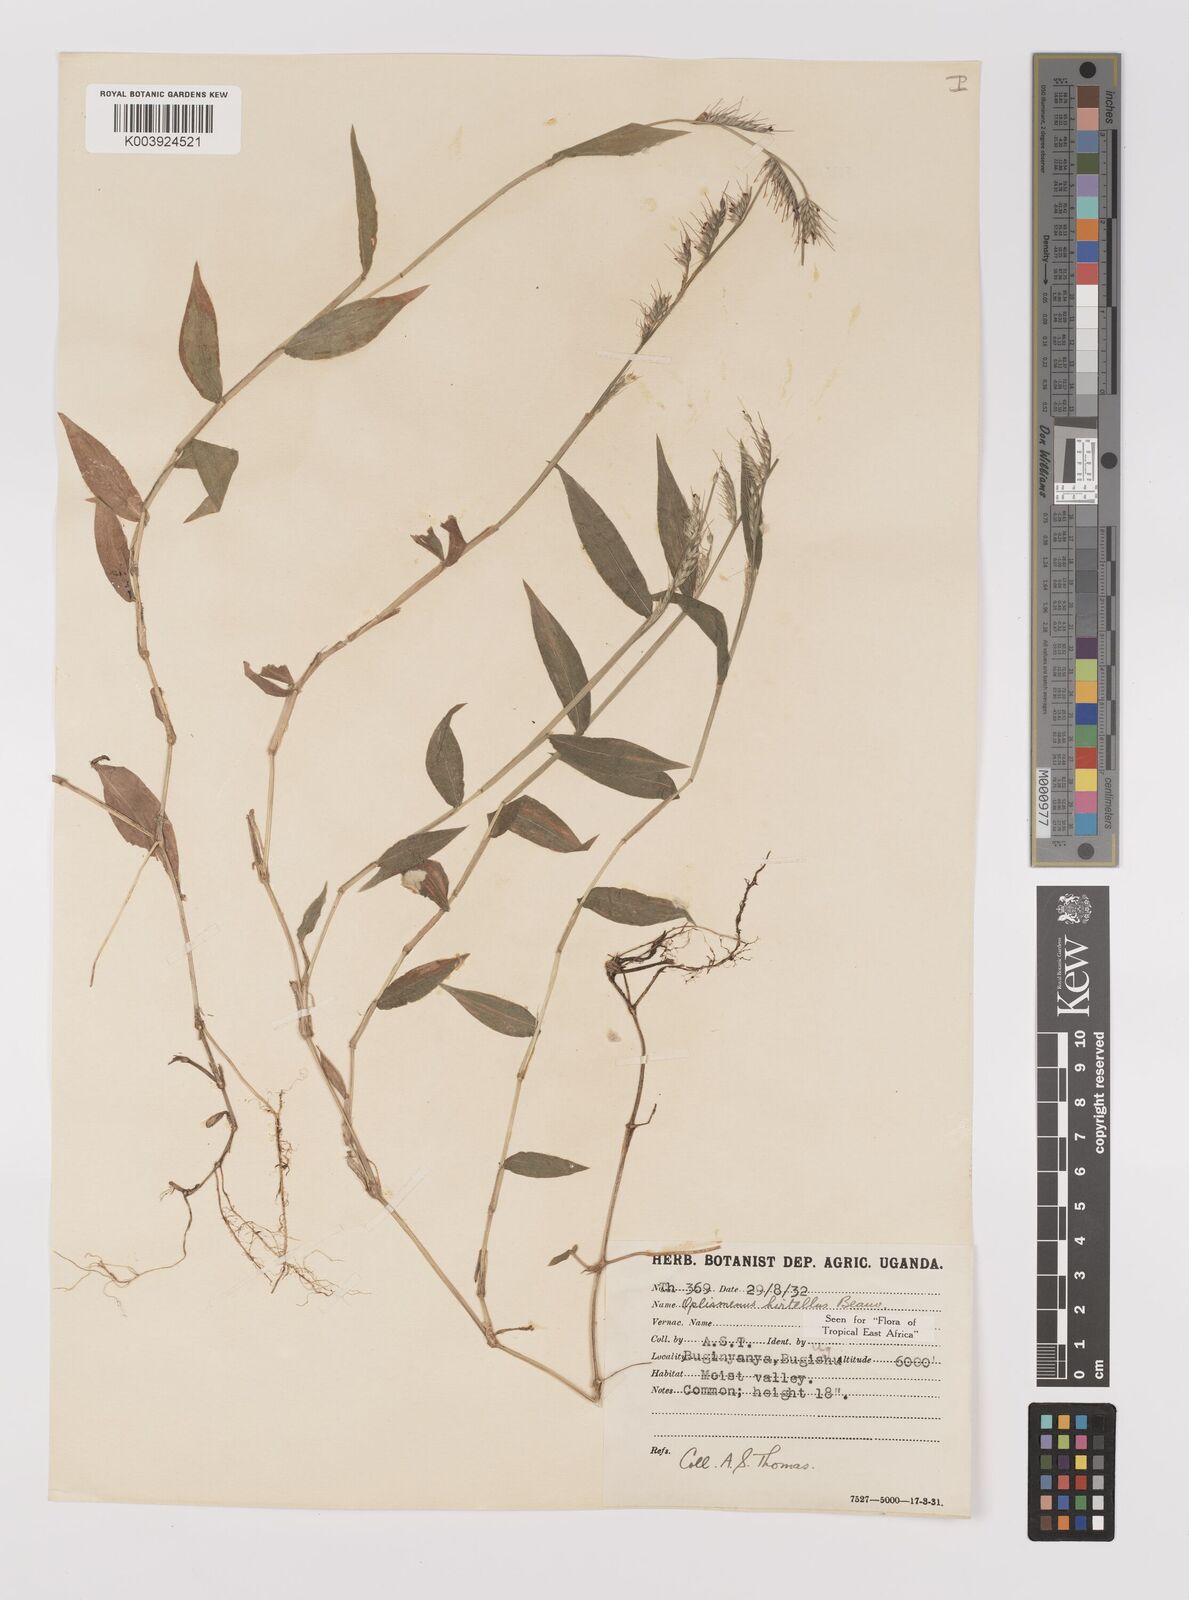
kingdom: Plantae
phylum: Tracheophyta
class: Liliopsida
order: Poales
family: Poaceae
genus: Oplismenus
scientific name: Oplismenus hirtellus
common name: Basketgrass
